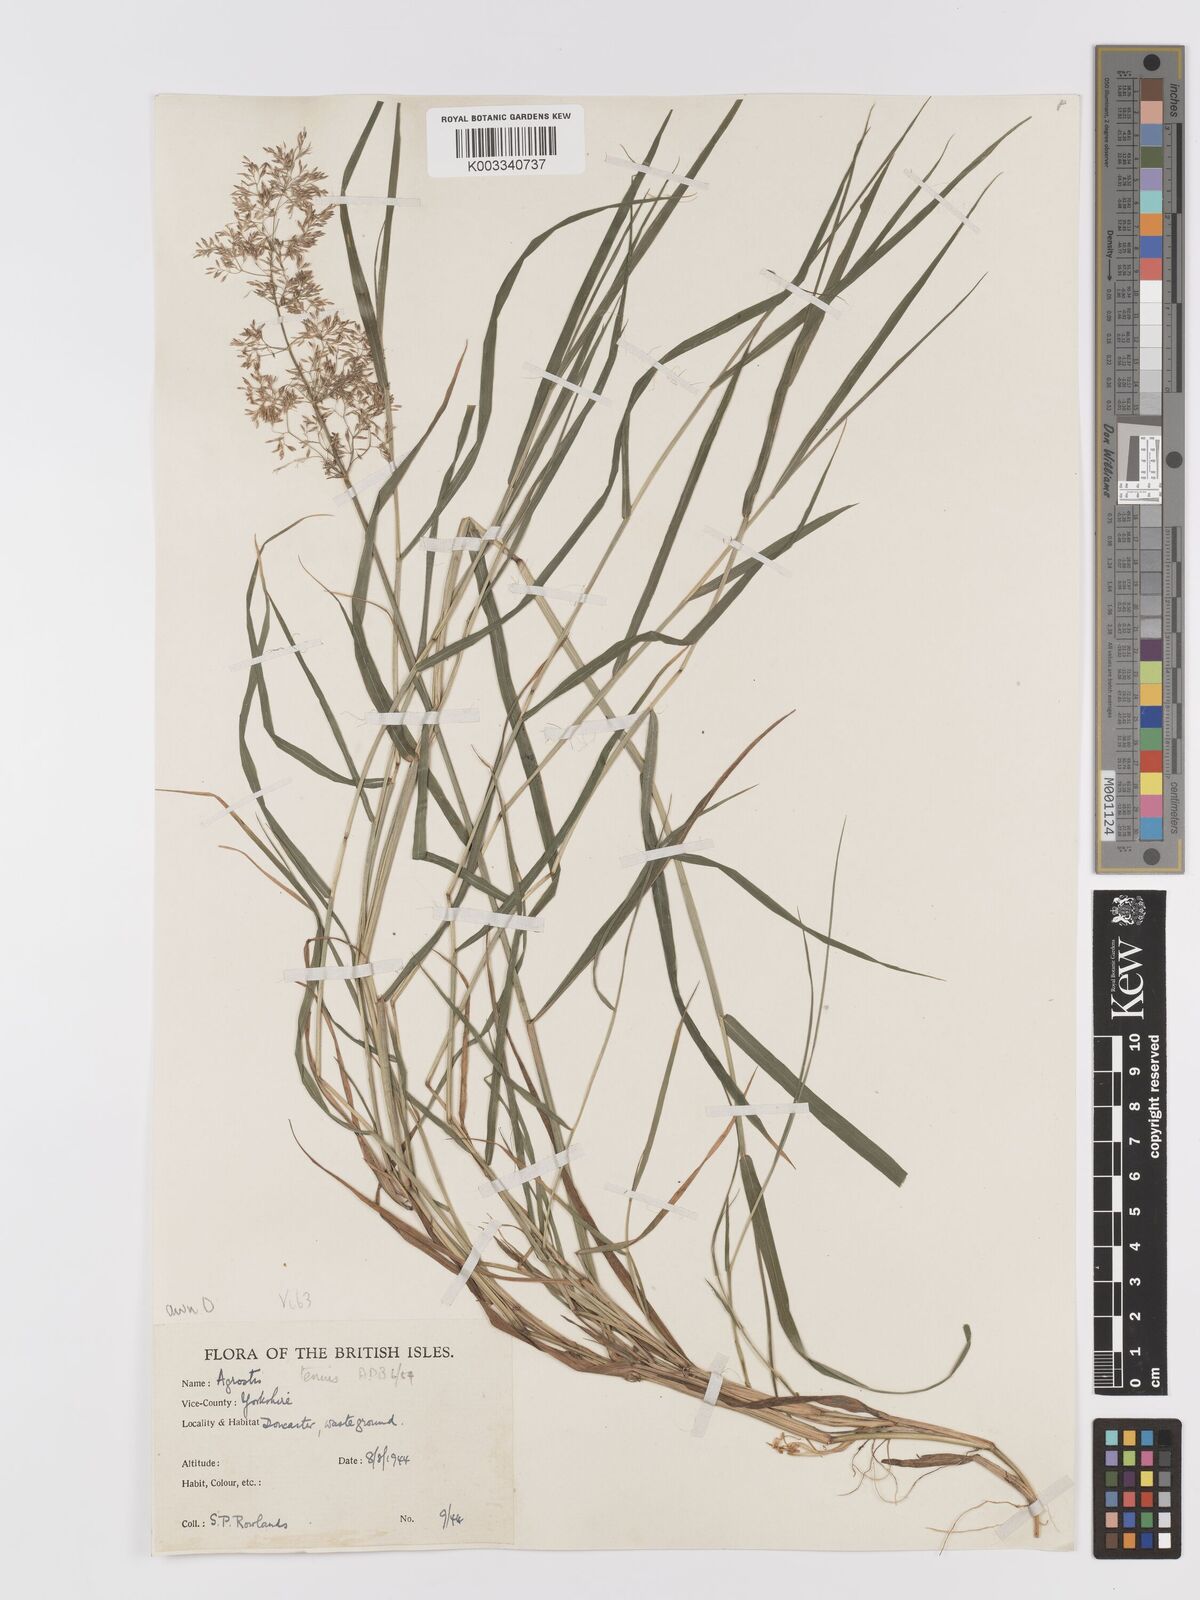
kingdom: Plantae
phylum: Tracheophyta
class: Liliopsida
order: Poales
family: Poaceae
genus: Agrostis
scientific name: Agrostis capillaris
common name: Colonial bentgrass
